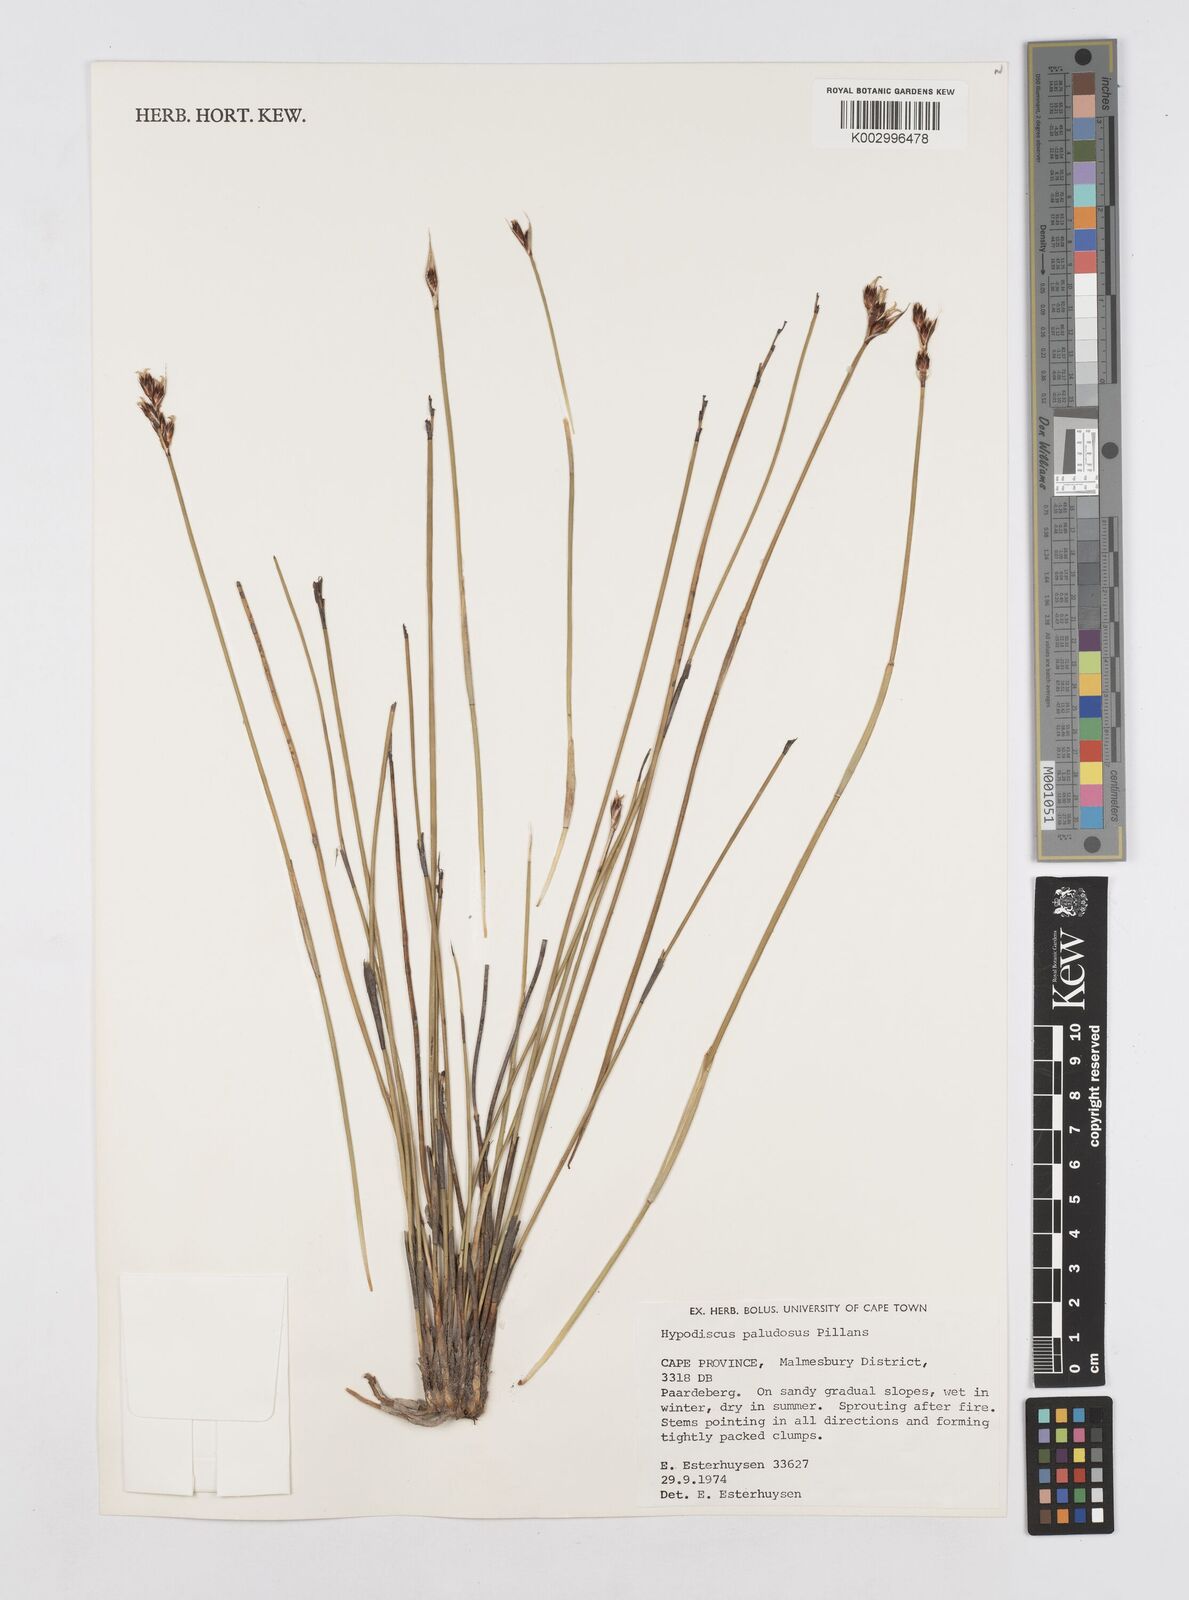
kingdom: Plantae
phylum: Tracheophyta
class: Liliopsida
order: Poales
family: Restionaceae
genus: Hypodiscus
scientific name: Hypodiscus rugosus
